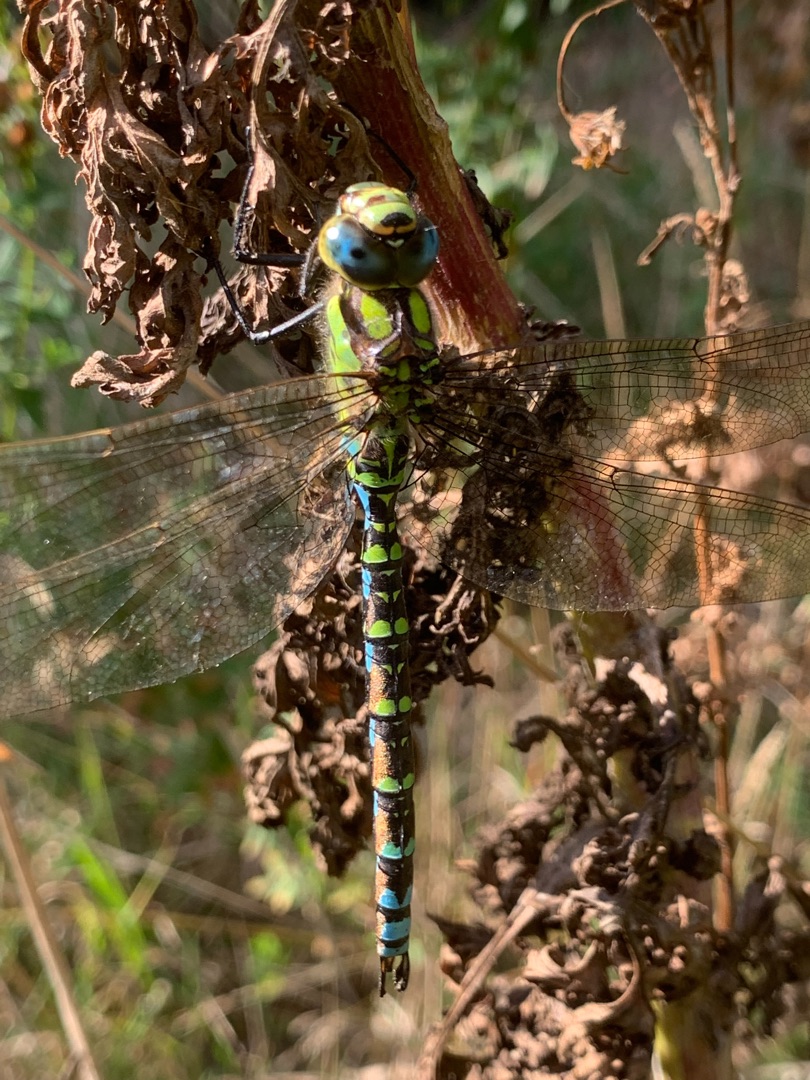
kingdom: Animalia
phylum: Arthropoda
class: Insecta
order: Odonata
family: Aeshnidae
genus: Aeshna
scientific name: Aeshna cyanea
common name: Blå mosaikguldsmed
